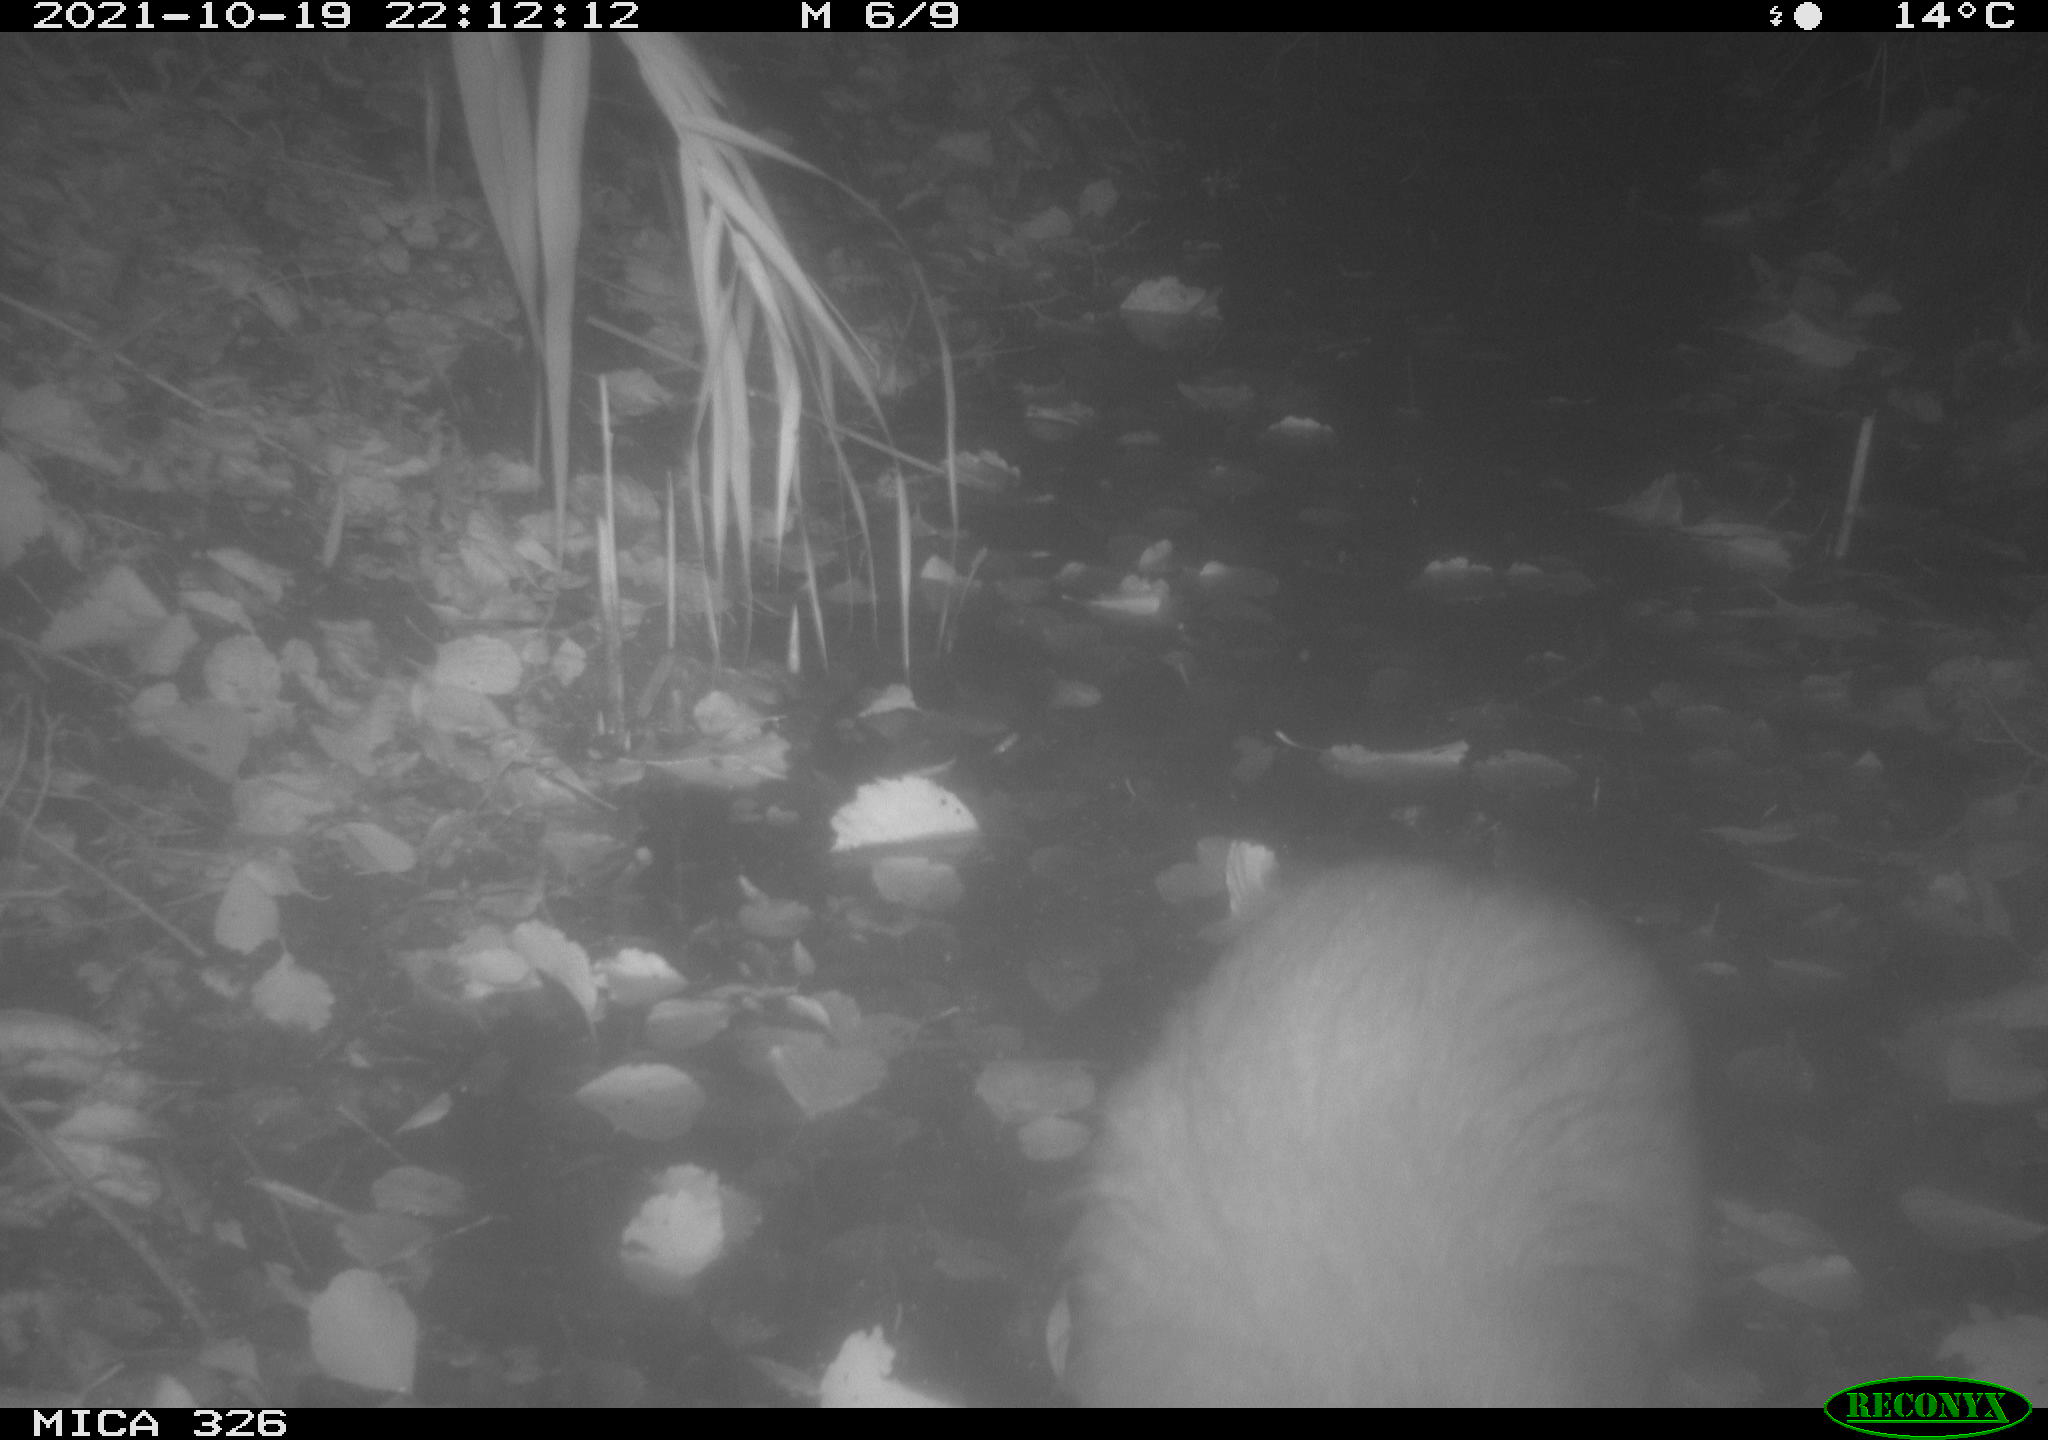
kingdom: Animalia
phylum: Chordata
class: Mammalia
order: Rodentia
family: Myocastoridae
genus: Myocastor
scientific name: Myocastor coypus
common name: Coypu
